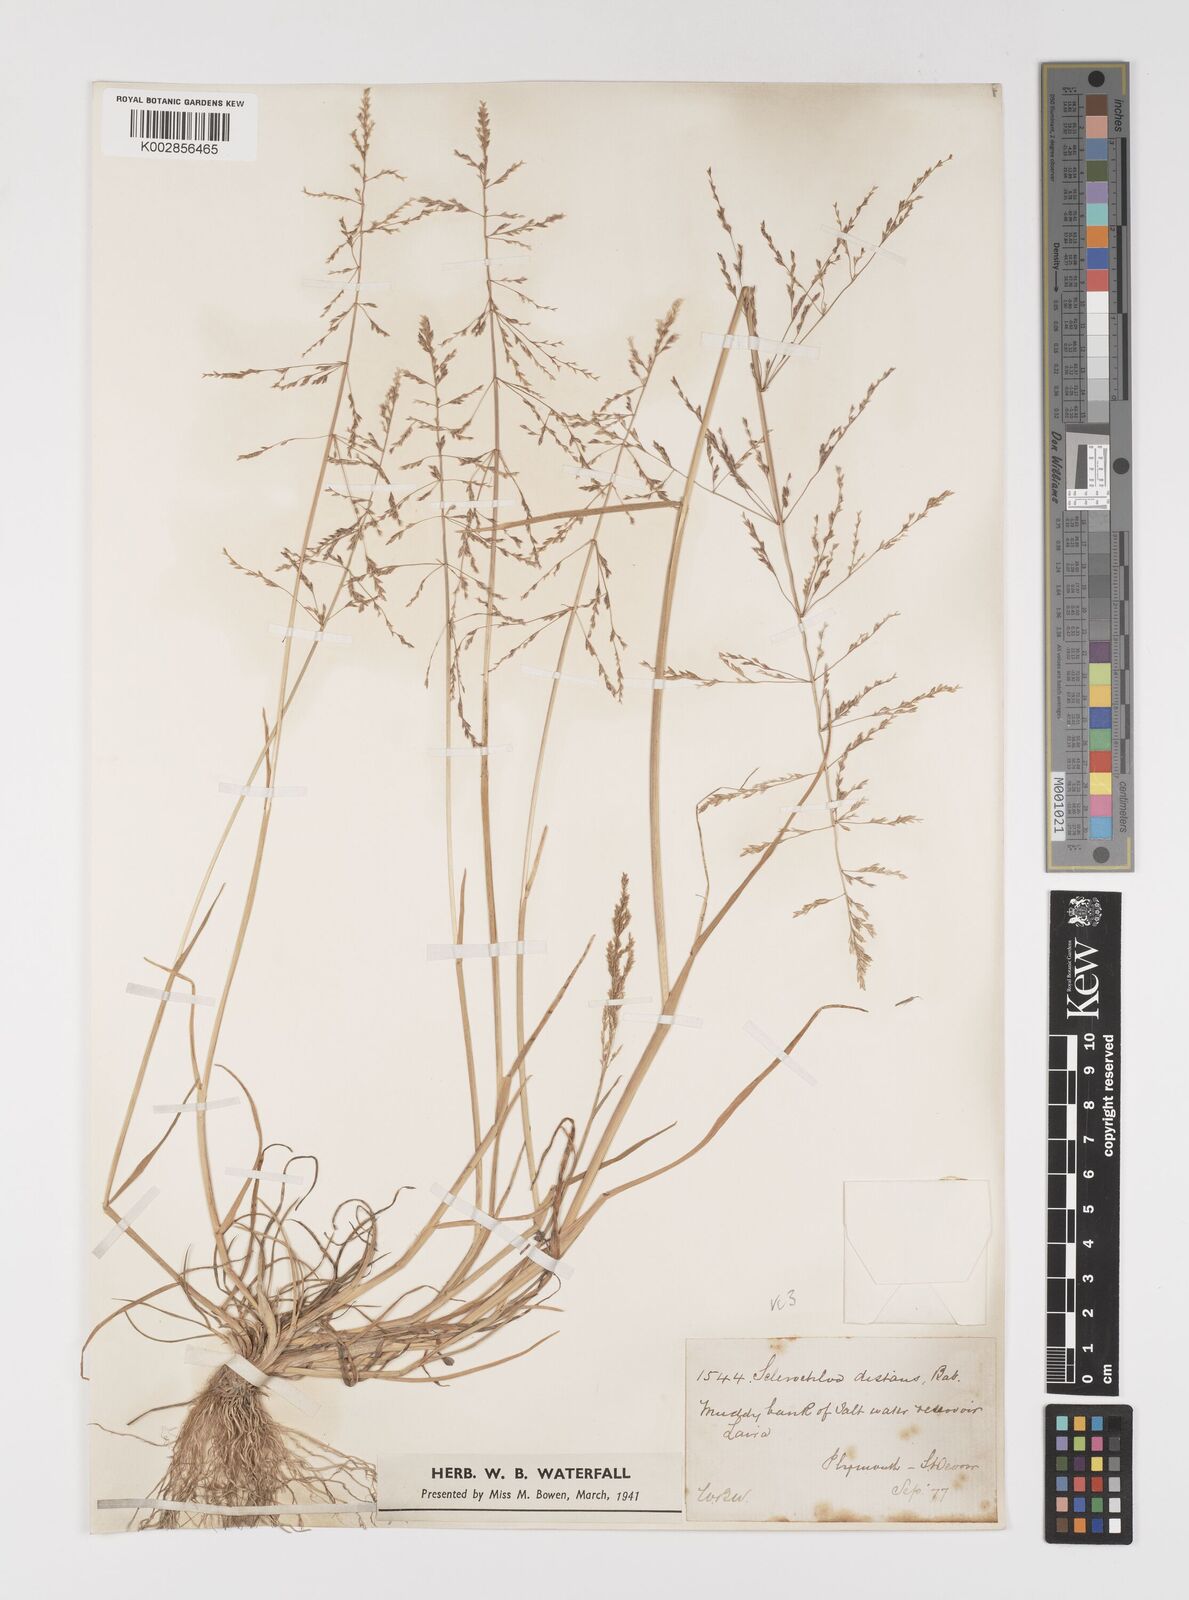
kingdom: Plantae
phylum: Tracheophyta
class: Liliopsida
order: Poales
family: Poaceae
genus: Puccinellia
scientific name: Puccinellia distans
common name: Weeping alkaligrass
